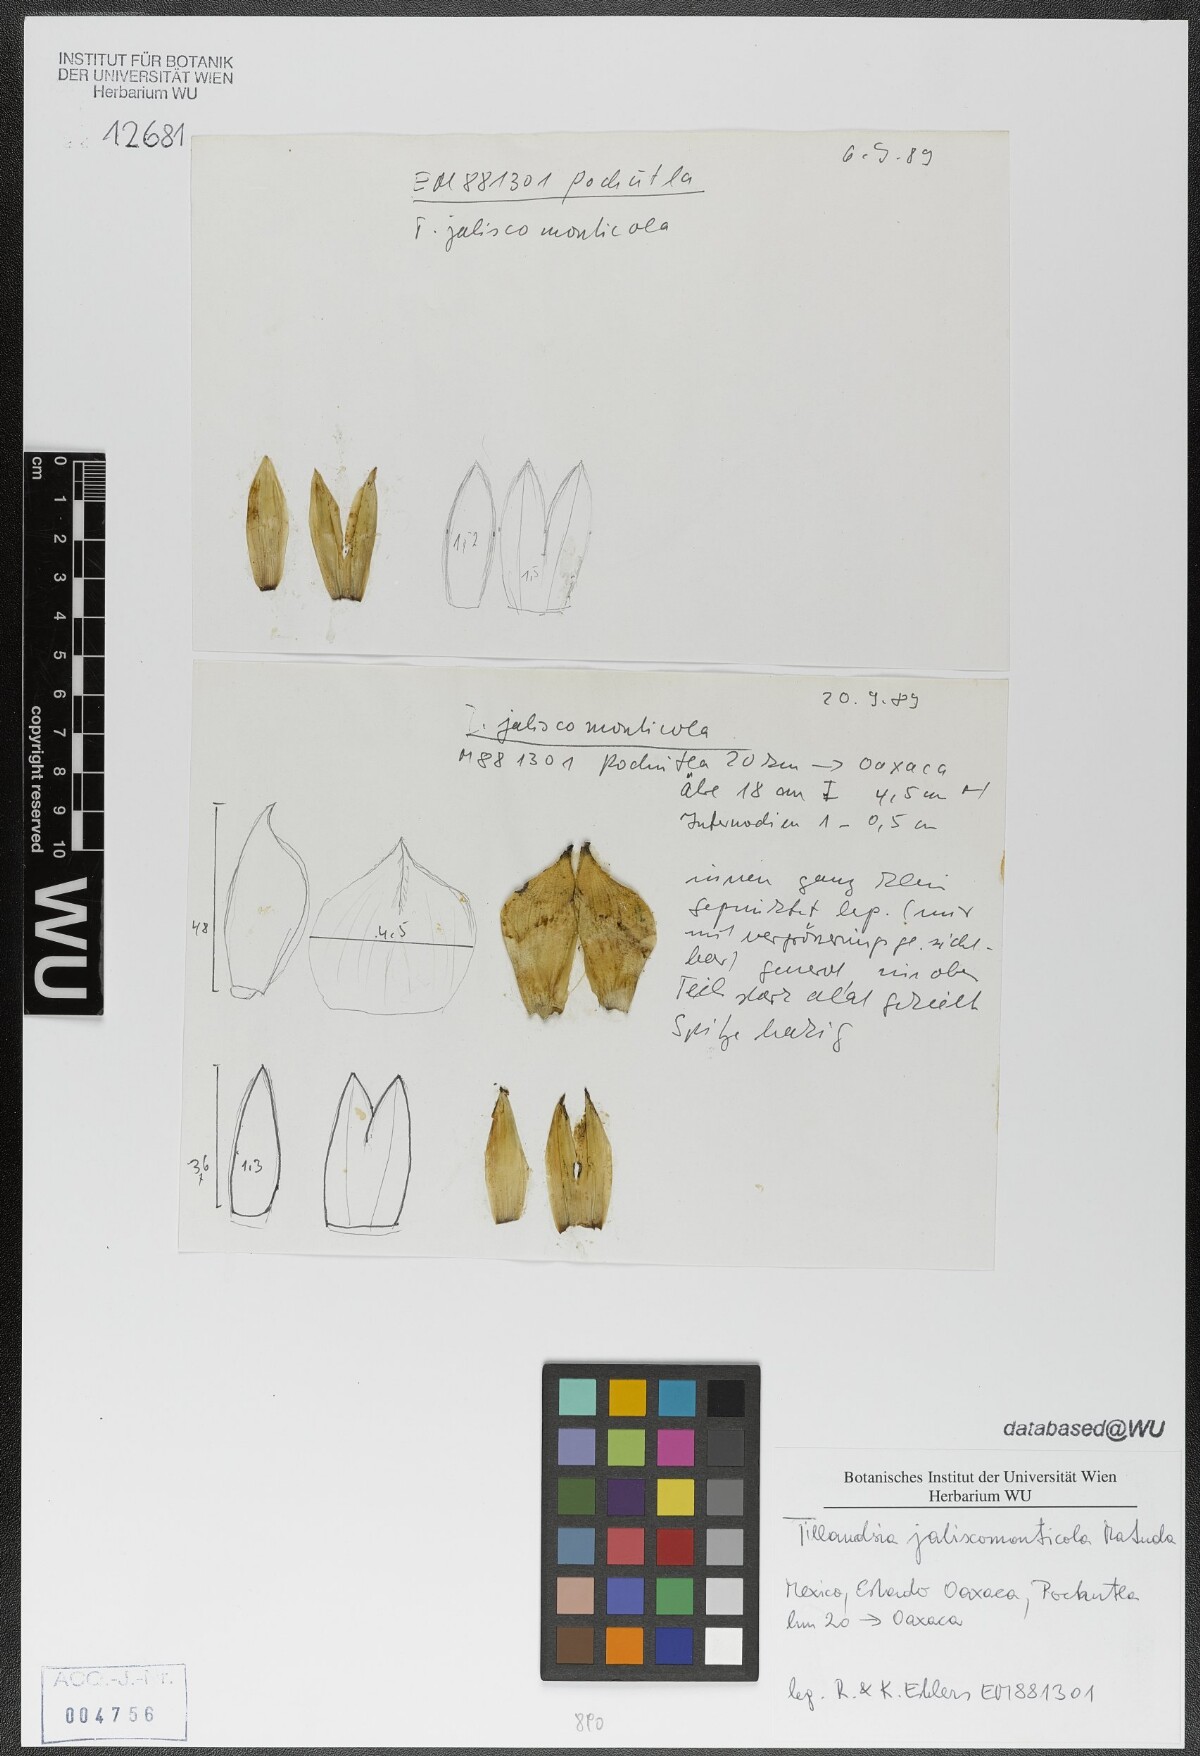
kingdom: Plantae
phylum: Tracheophyta
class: Liliopsida
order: Poales
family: Bromeliaceae
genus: Tillandsia
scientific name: Tillandsia compressa
